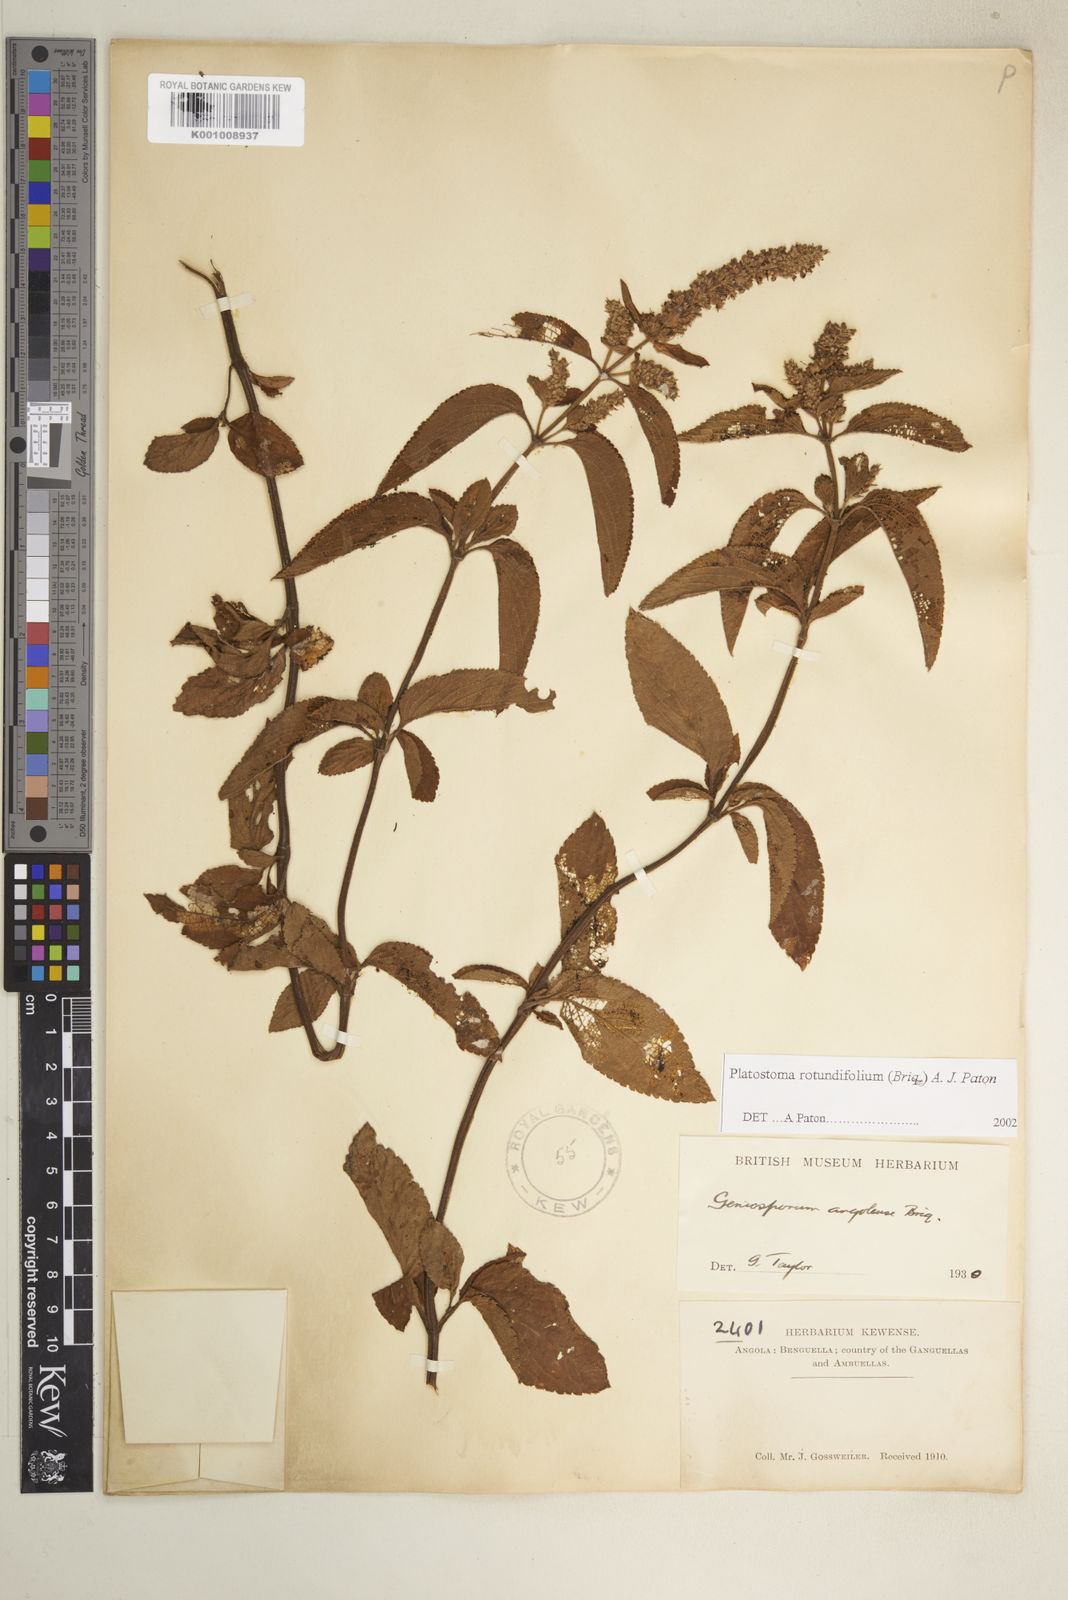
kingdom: Plantae
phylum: Tracheophyta
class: Magnoliopsida
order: Lamiales
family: Lamiaceae
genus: Platostoma
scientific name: Platostoma rotundifolium
